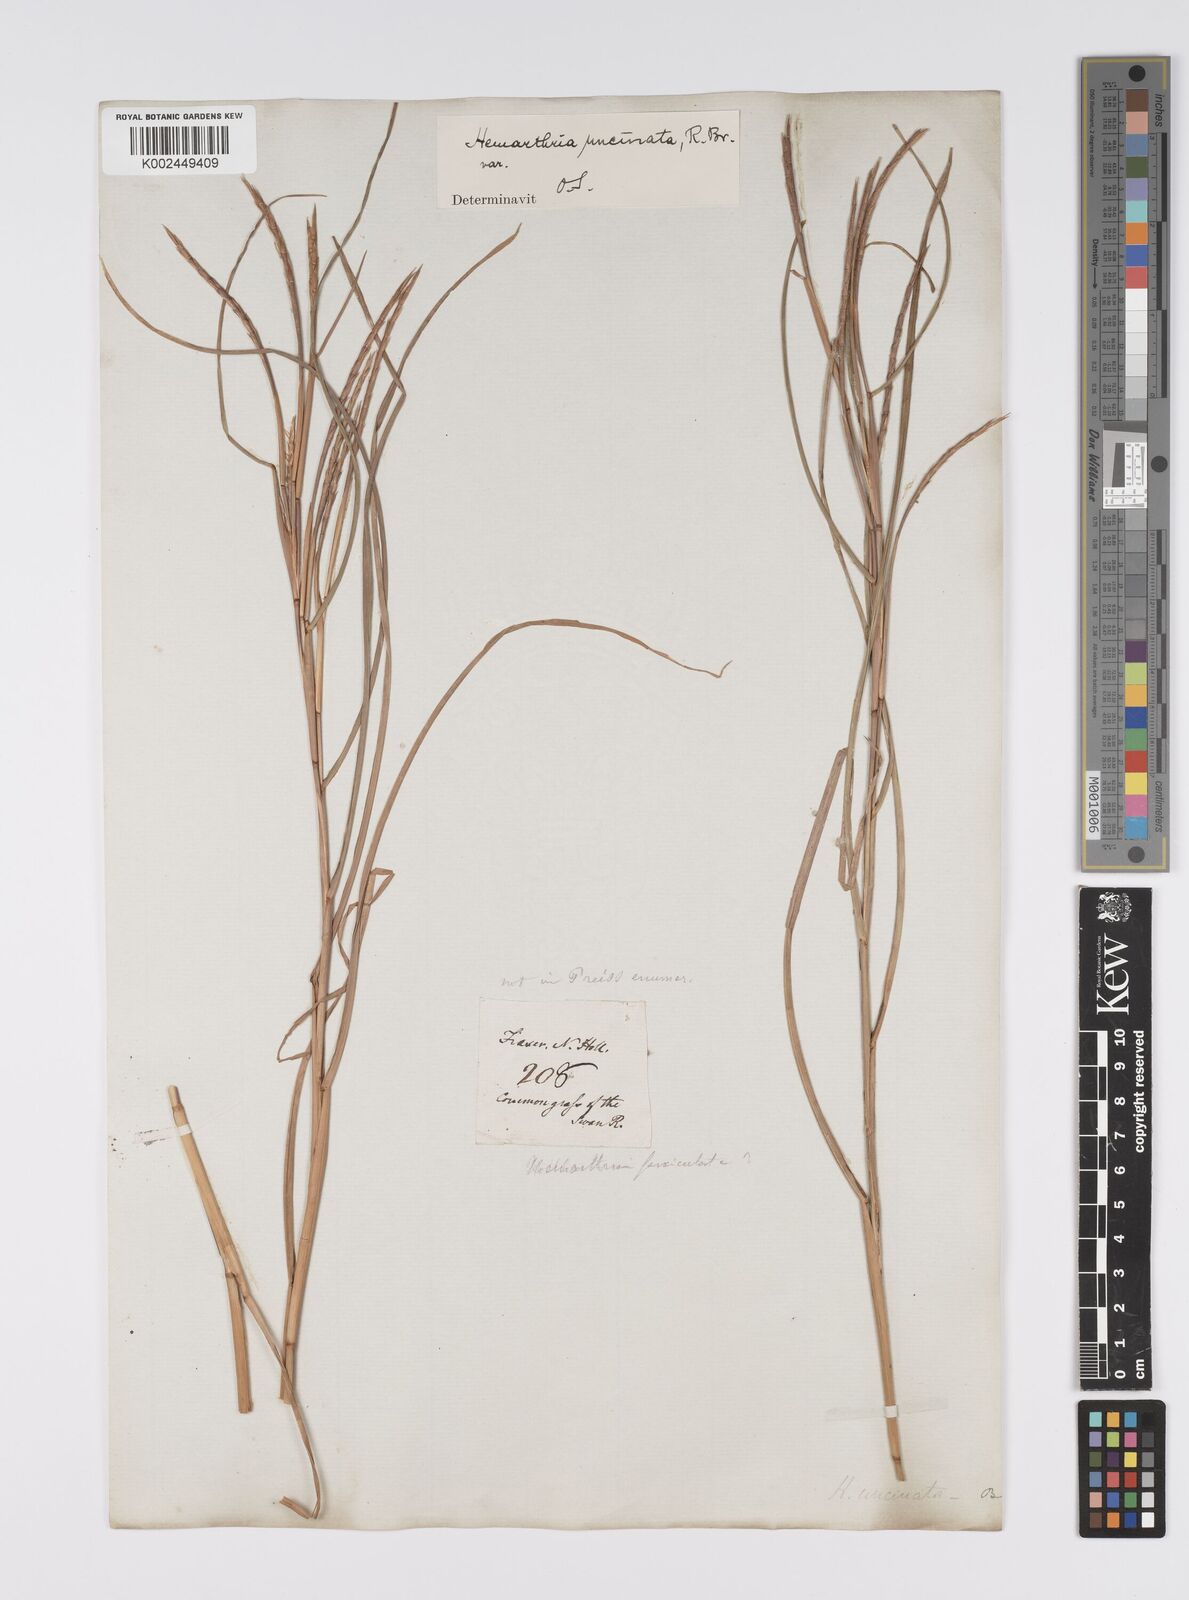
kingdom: Plantae
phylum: Tracheophyta
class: Liliopsida
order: Poales
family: Poaceae
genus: Hemarthria
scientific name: Hemarthria uncinata
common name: Matgrass
